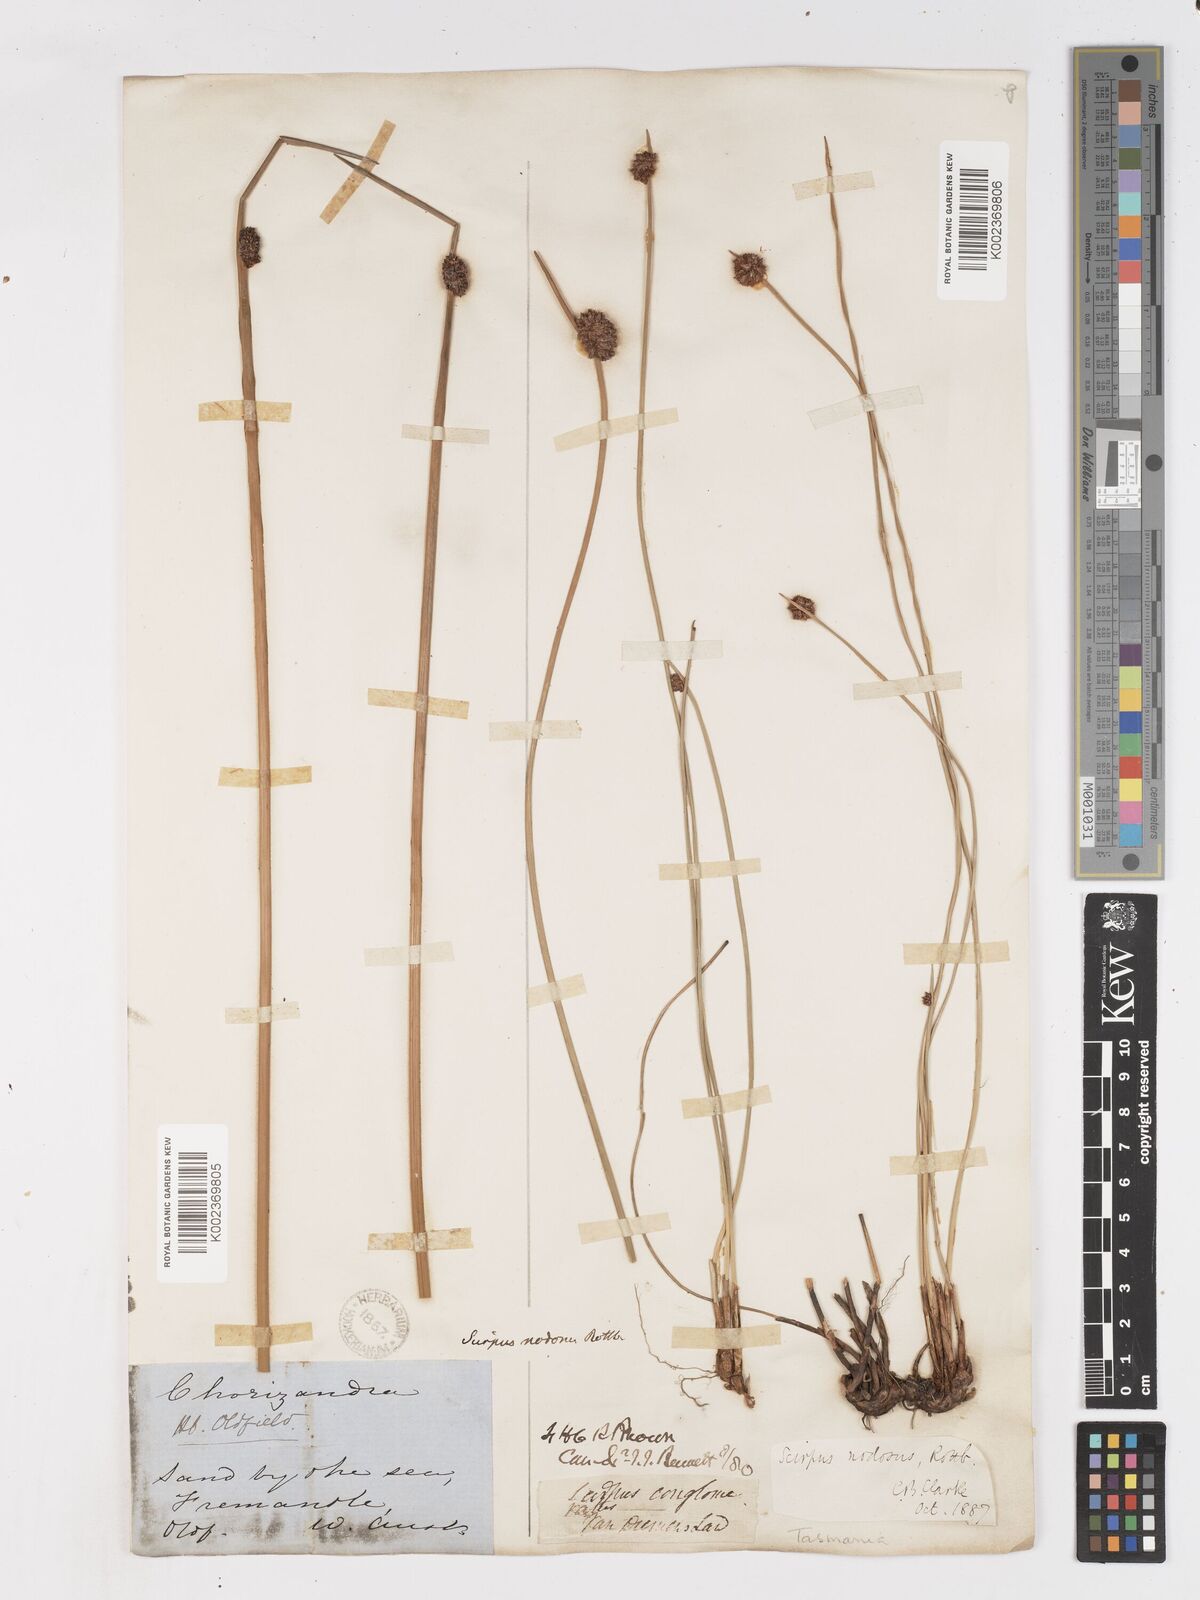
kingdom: Plantae
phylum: Tracheophyta
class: Liliopsida
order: Poales
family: Cyperaceae
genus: Ficinia
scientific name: Ficinia nodosa
